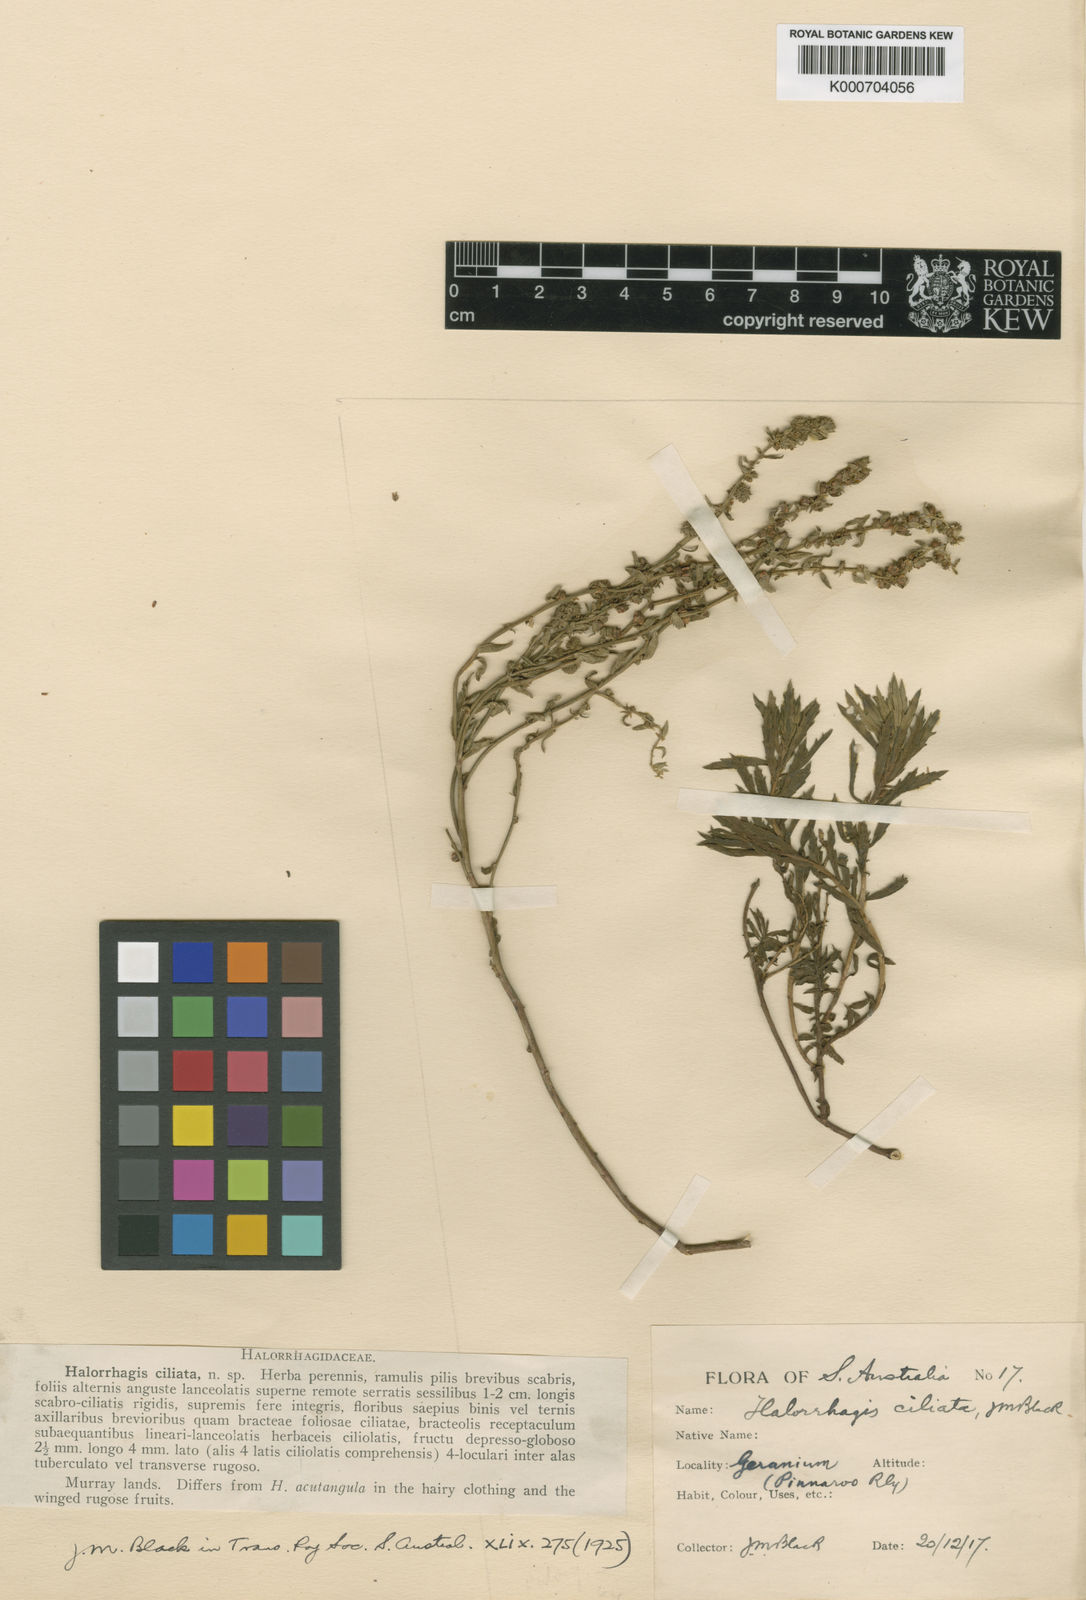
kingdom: Plantae
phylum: Tracheophyta
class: Magnoliopsida
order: Saxifragales
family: Haloragaceae
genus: Haloragis
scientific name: Haloragis ciliata
